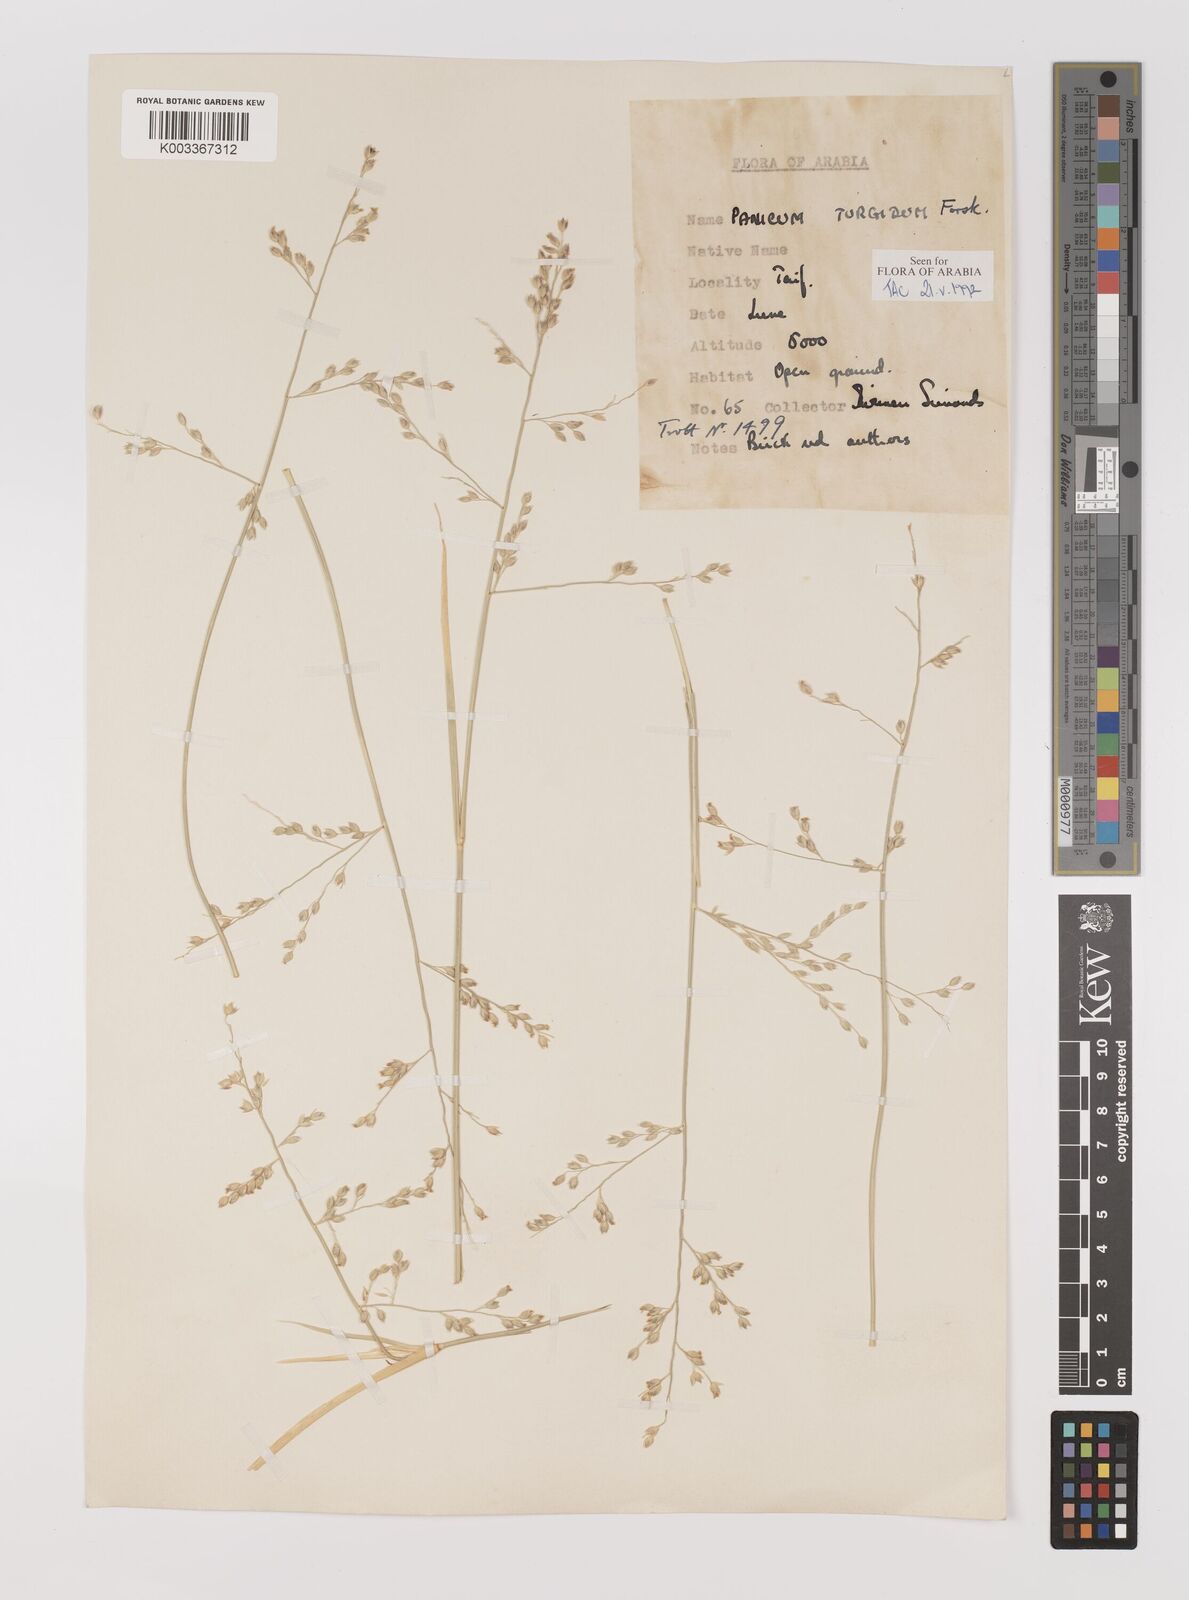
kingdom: Plantae
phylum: Tracheophyta
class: Liliopsida
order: Poales
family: Poaceae
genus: Panicum
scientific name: Panicum turgidum
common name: Desert grass
